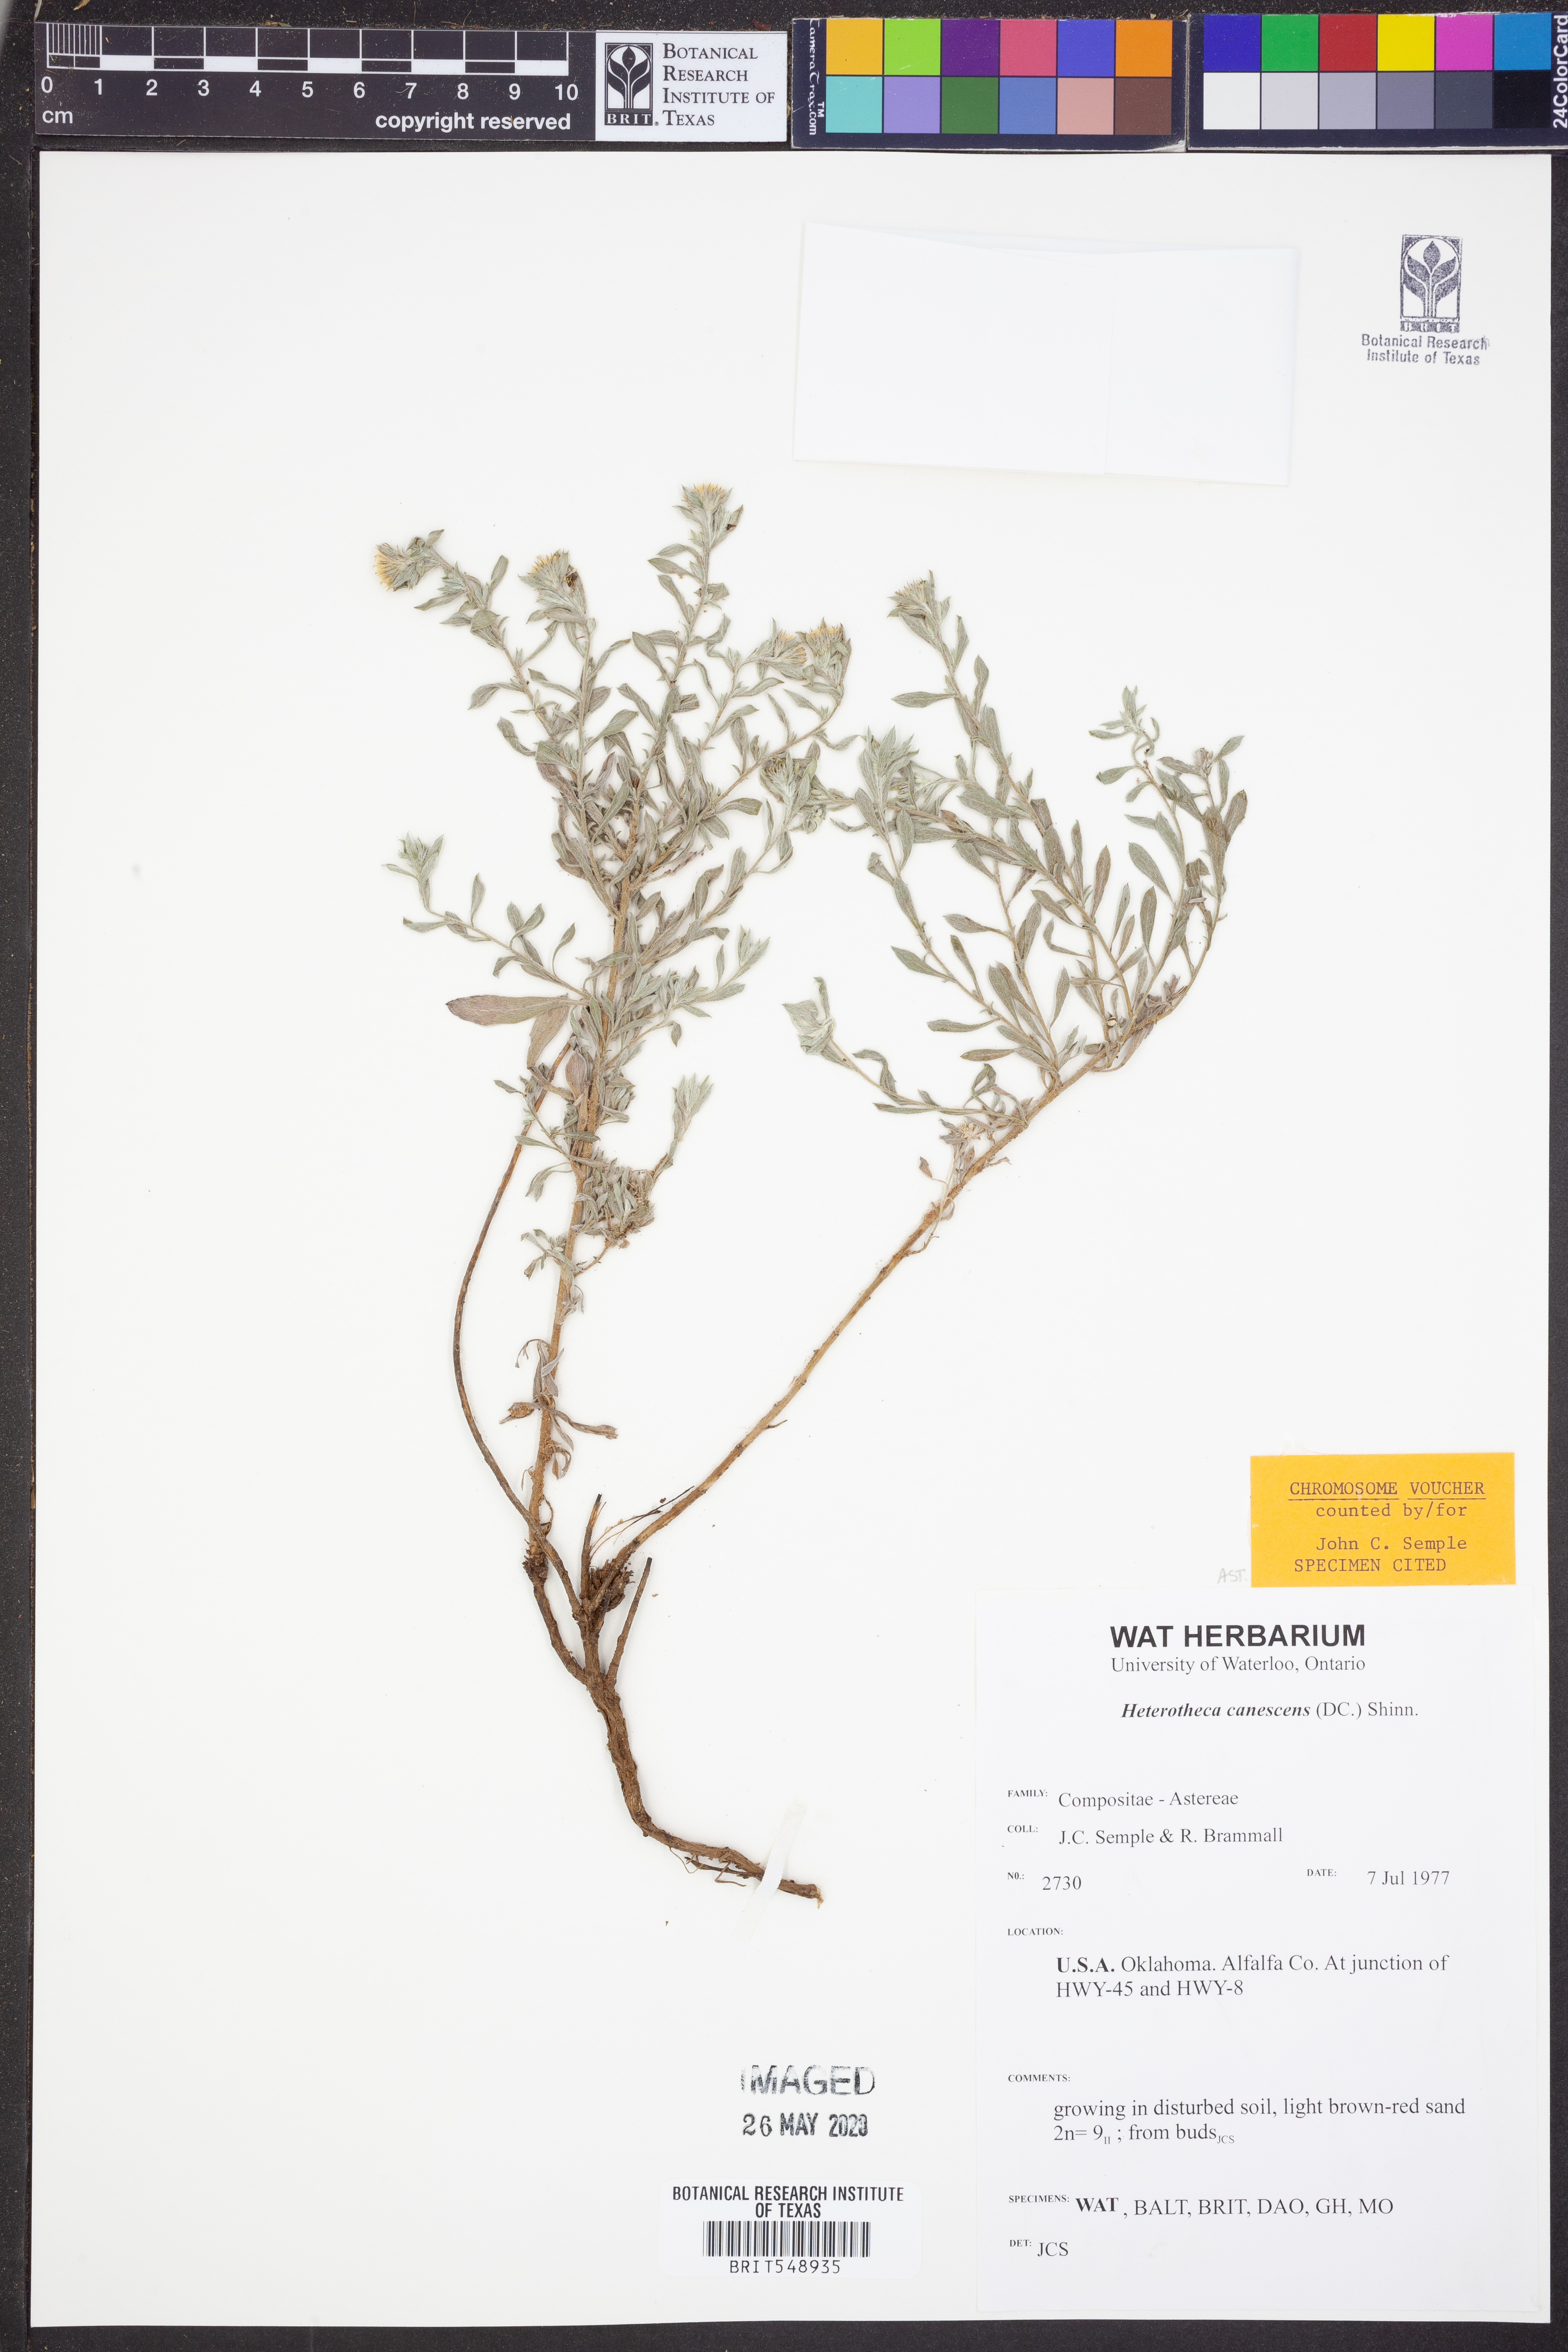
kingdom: Plantae
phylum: Tracheophyta
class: Magnoliopsida
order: Asterales
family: Asteraceae
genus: Heterotheca
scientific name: Heterotheca canescens
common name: Hoary golden-aster
